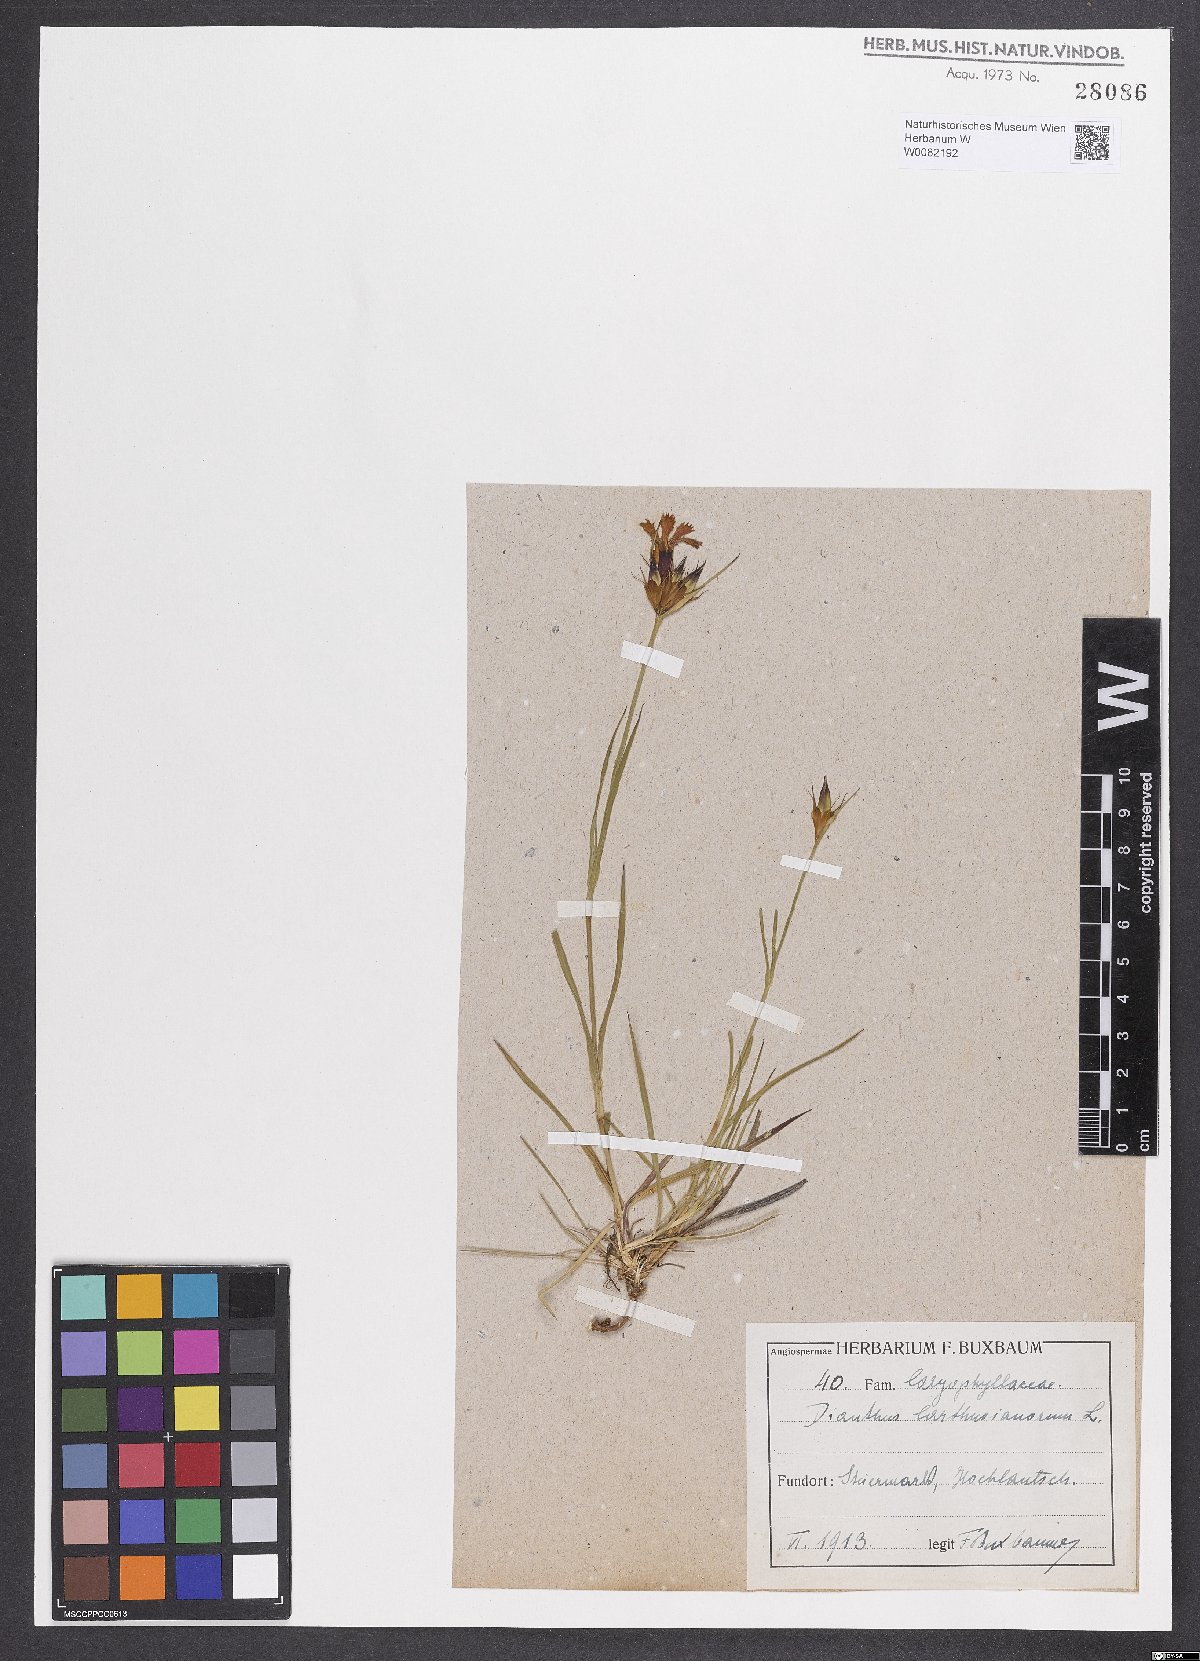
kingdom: Plantae
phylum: Tracheophyta
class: Magnoliopsida
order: Caryophyllales
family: Caryophyllaceae
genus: Dianthus
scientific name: Dianthus carthusianorum
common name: Carthusian pink
